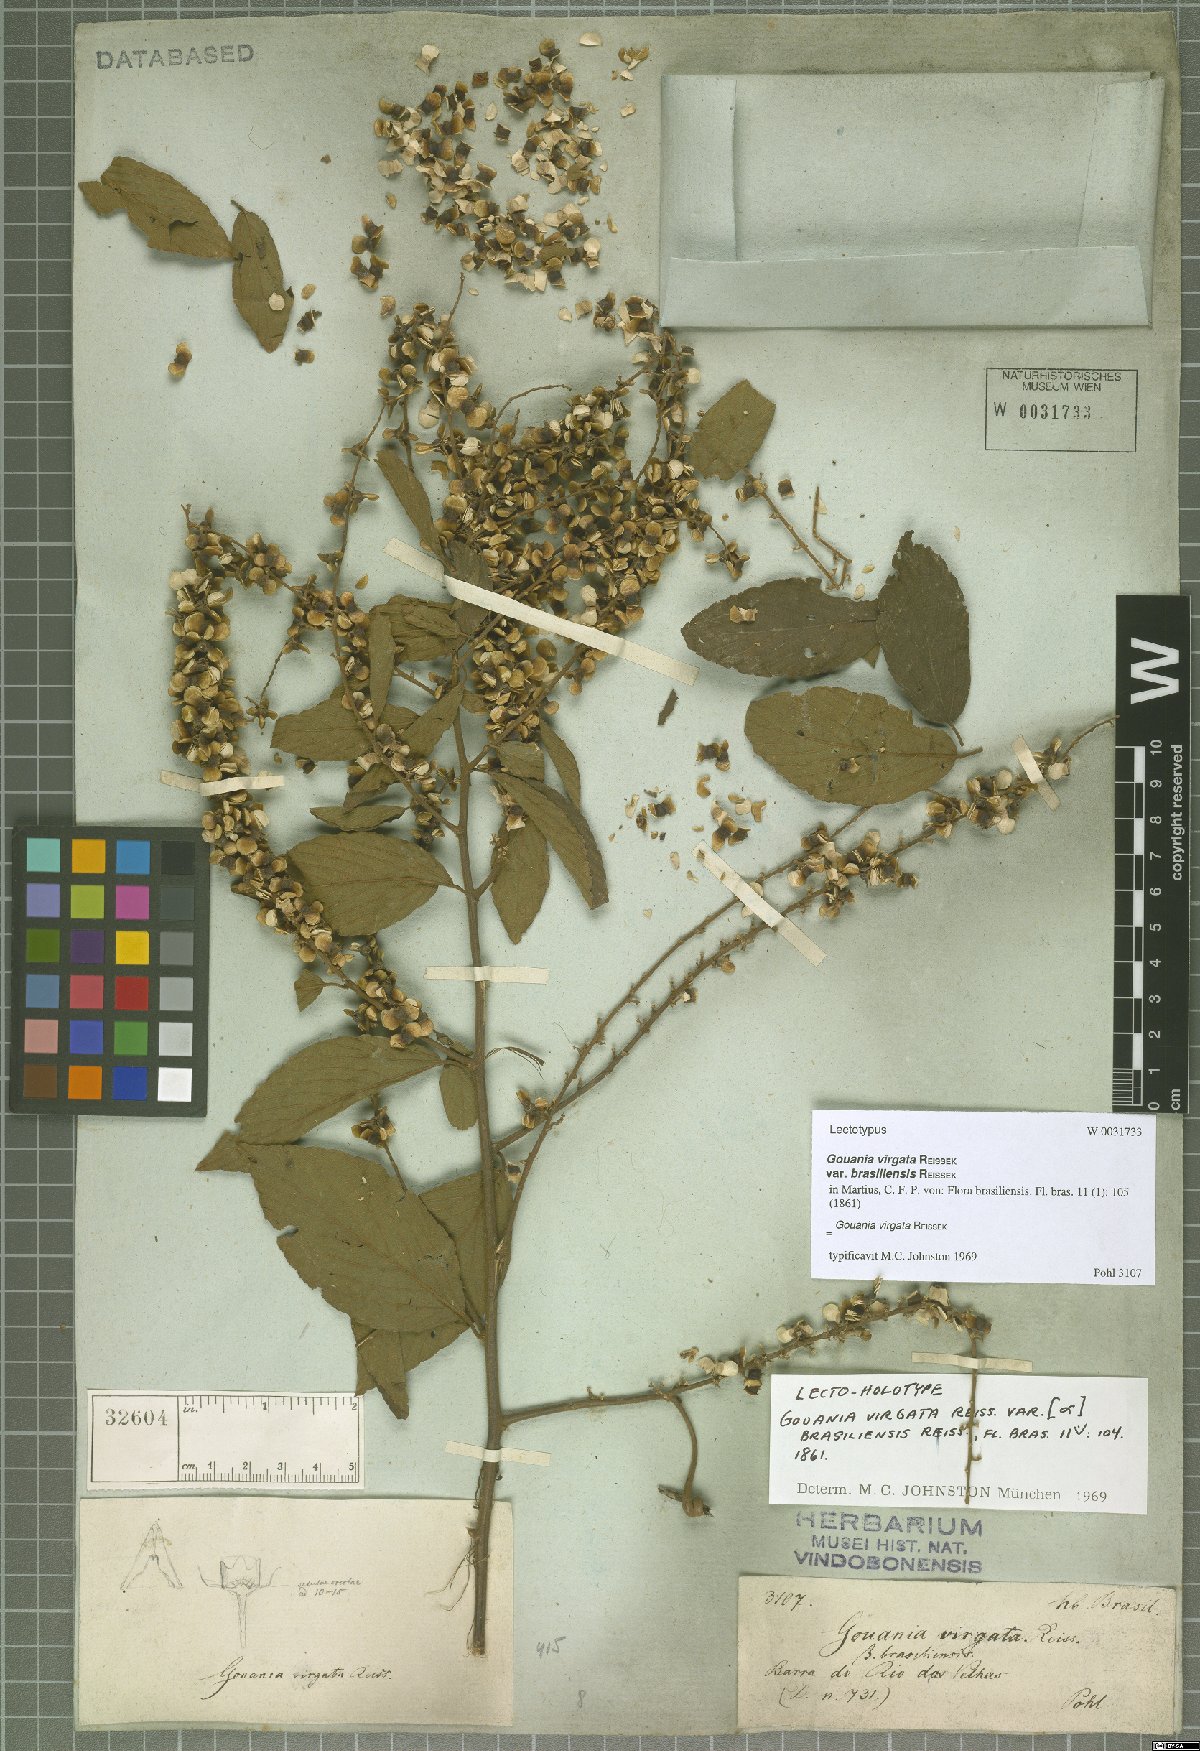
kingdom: Plantae
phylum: Tracheophyta
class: Magnoliopsida
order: Rosales
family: Rhamnaceae
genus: Gouania
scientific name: Gouania lupuloides
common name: Chewstick
